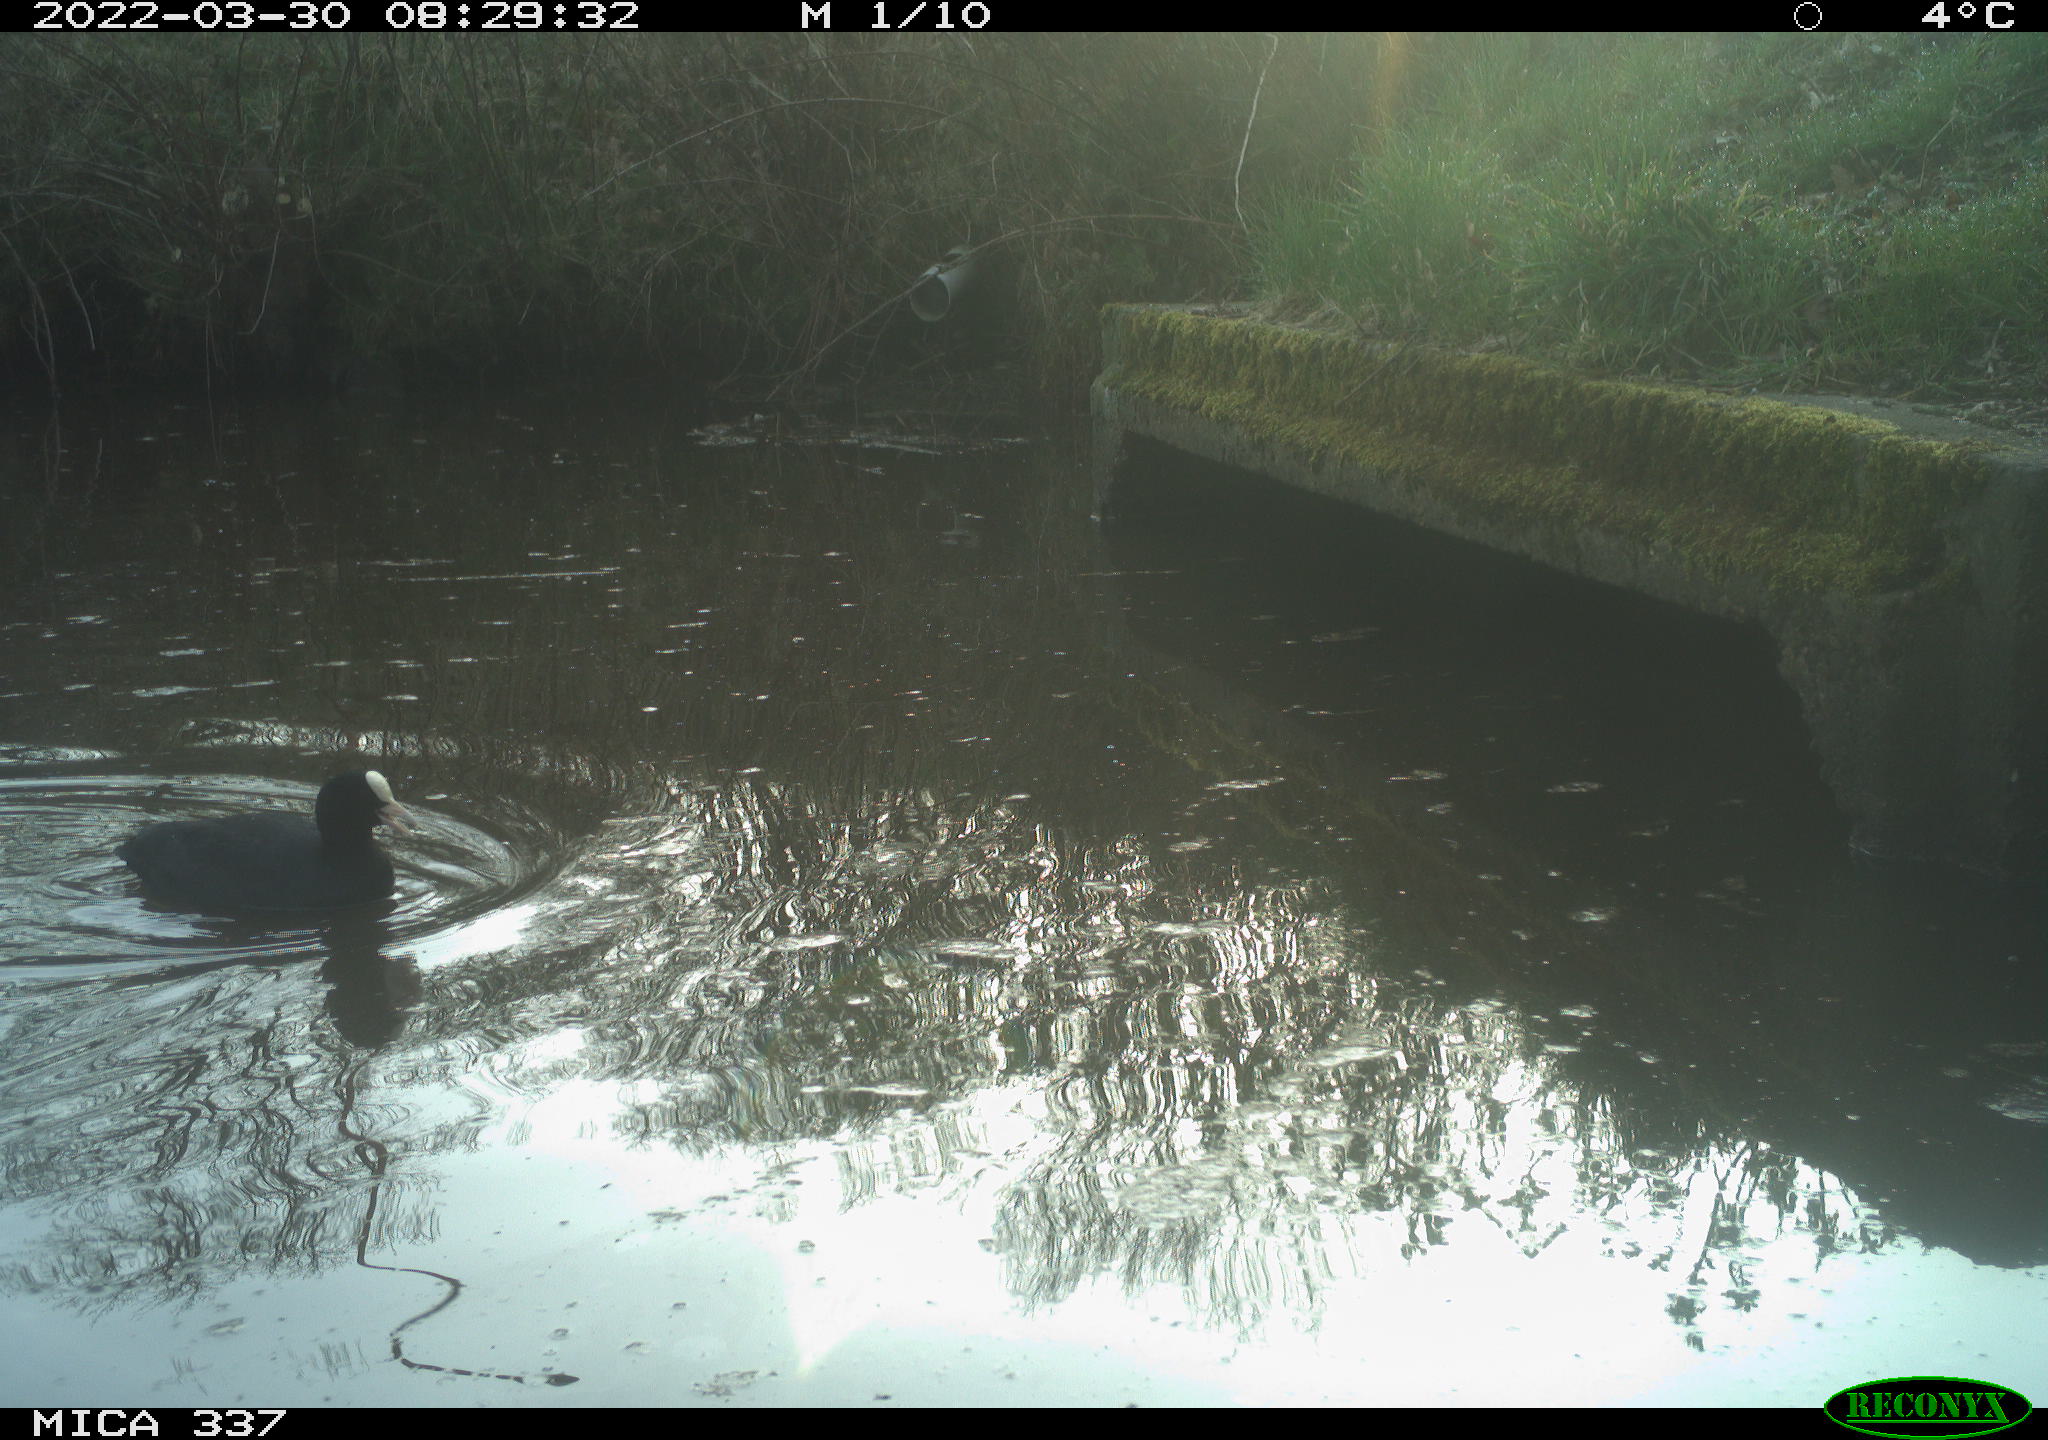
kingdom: Animalia
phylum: Chordata
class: Aves
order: Gruiformes
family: Rallidae
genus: Fulica
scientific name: Fulica atra
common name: Eurasian coot
